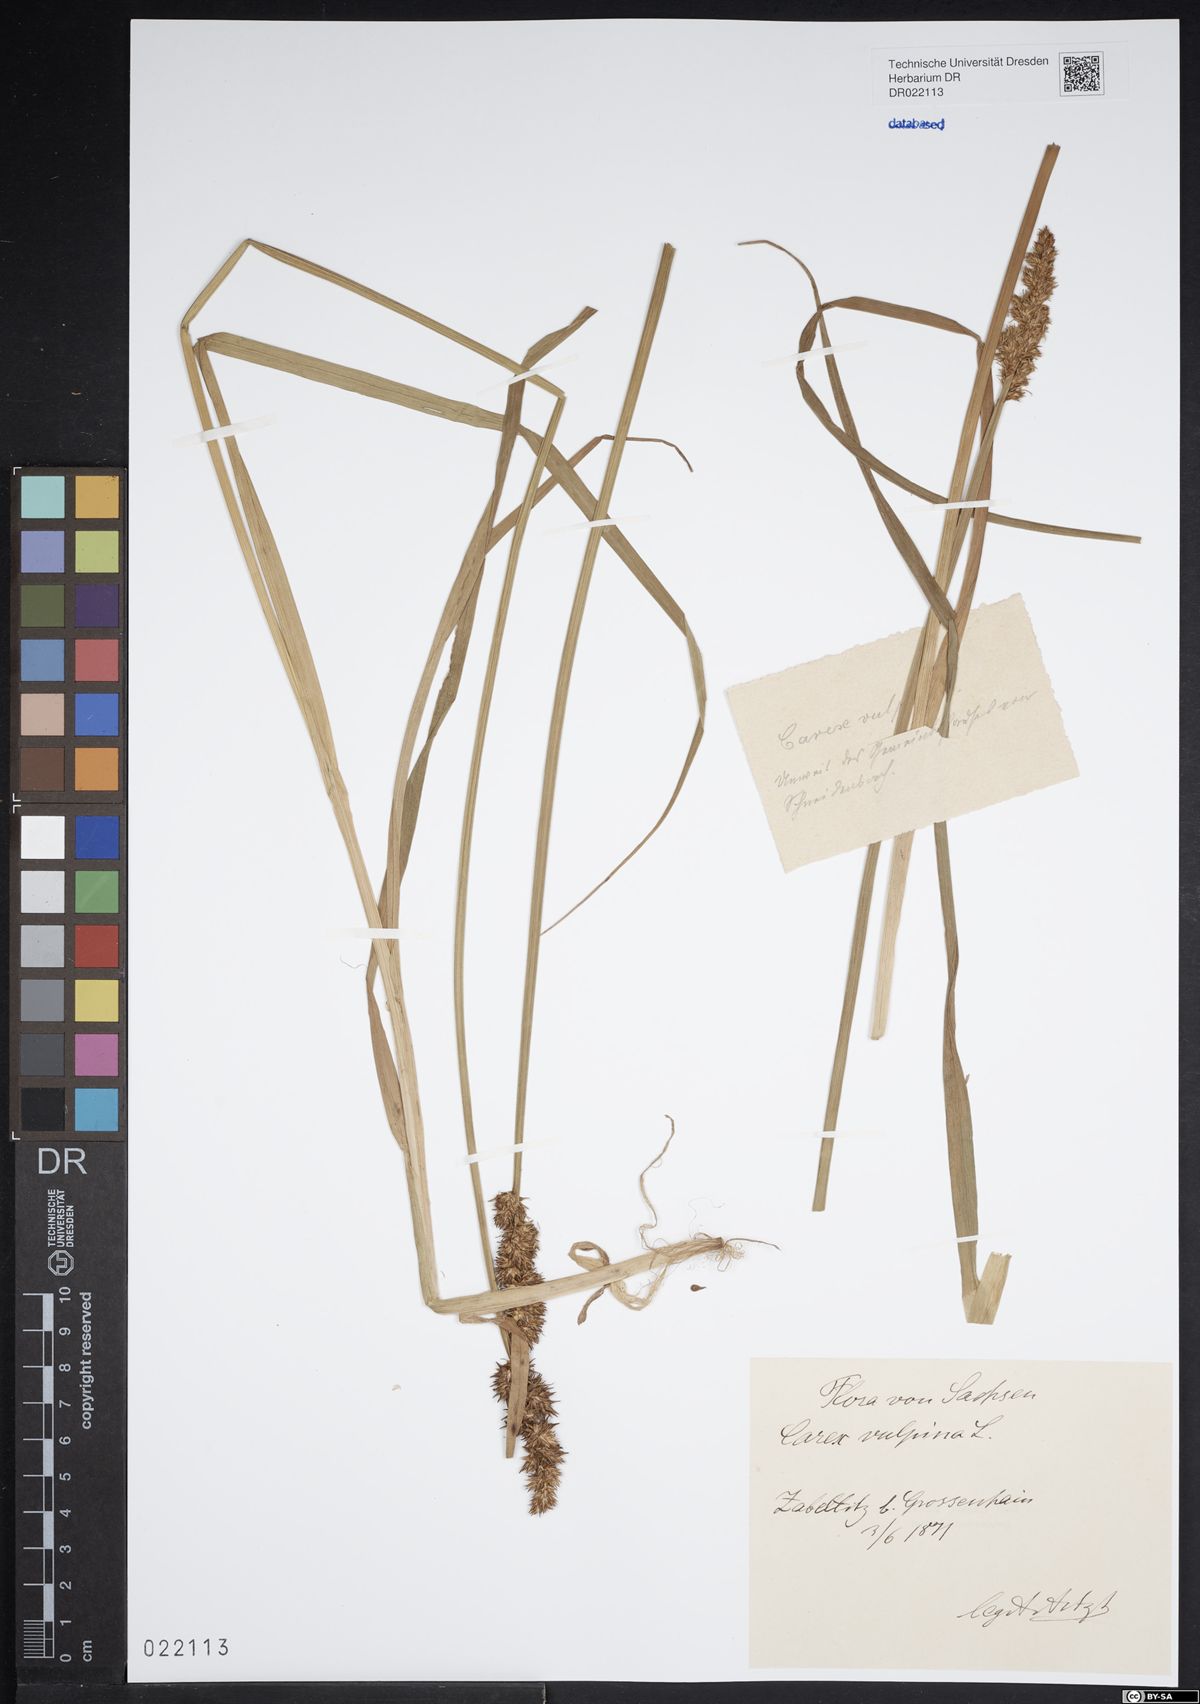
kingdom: Plantae
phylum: Tracheophyta
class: Liliopsida
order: Poales
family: Cyperaceae
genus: Carex
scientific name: Carex vulpina
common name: True fox-sedge
